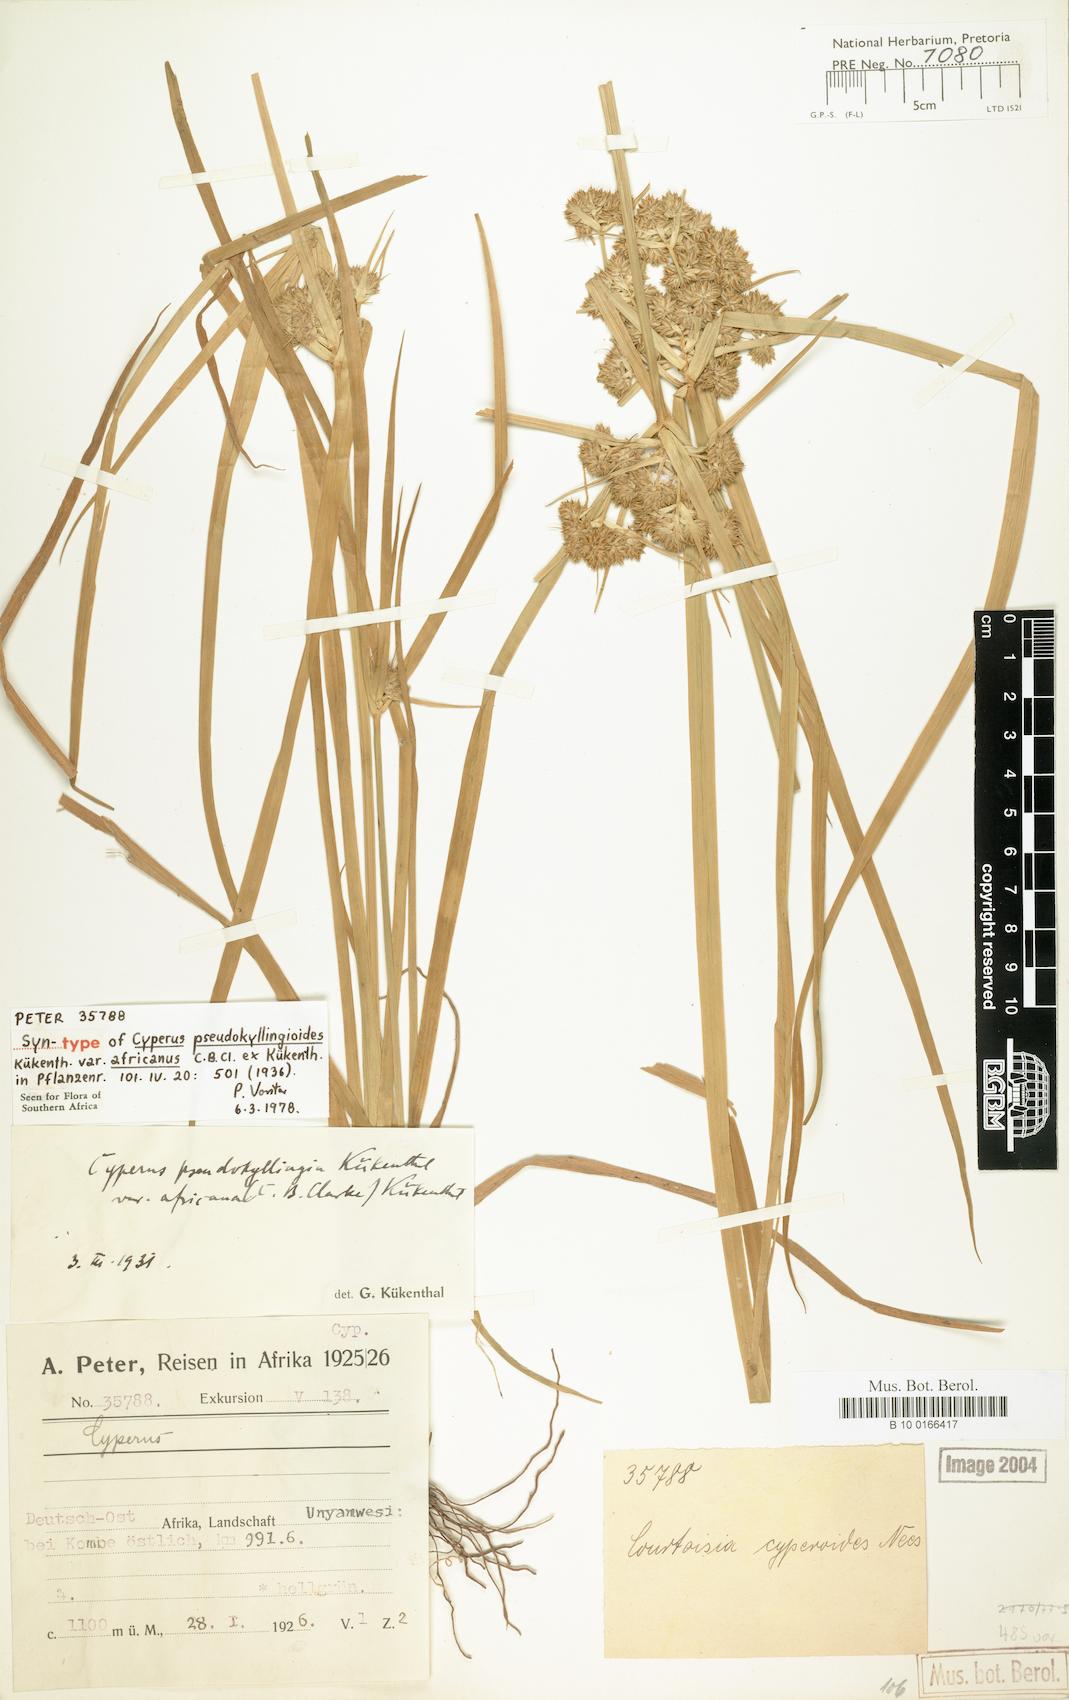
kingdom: Plantae
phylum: Tracheophyta
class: Liliopsida
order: Poales
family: Cyperaceae
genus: Cyperus
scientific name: Cyperus pseudokyllingioides
